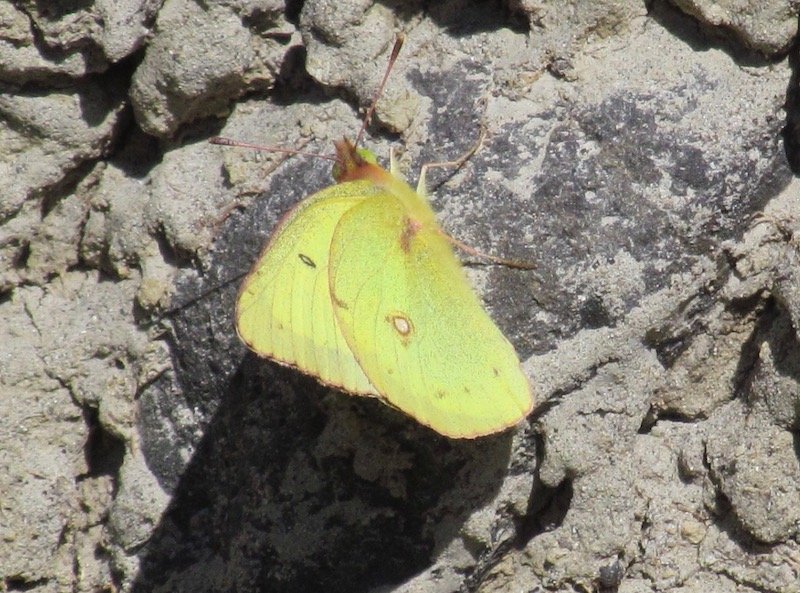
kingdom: Animalia
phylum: Arthropoda
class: Insecta
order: Lepidoptera
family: Pieridae
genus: Colias
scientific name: Colias philodice
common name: Clouded Sulphur
